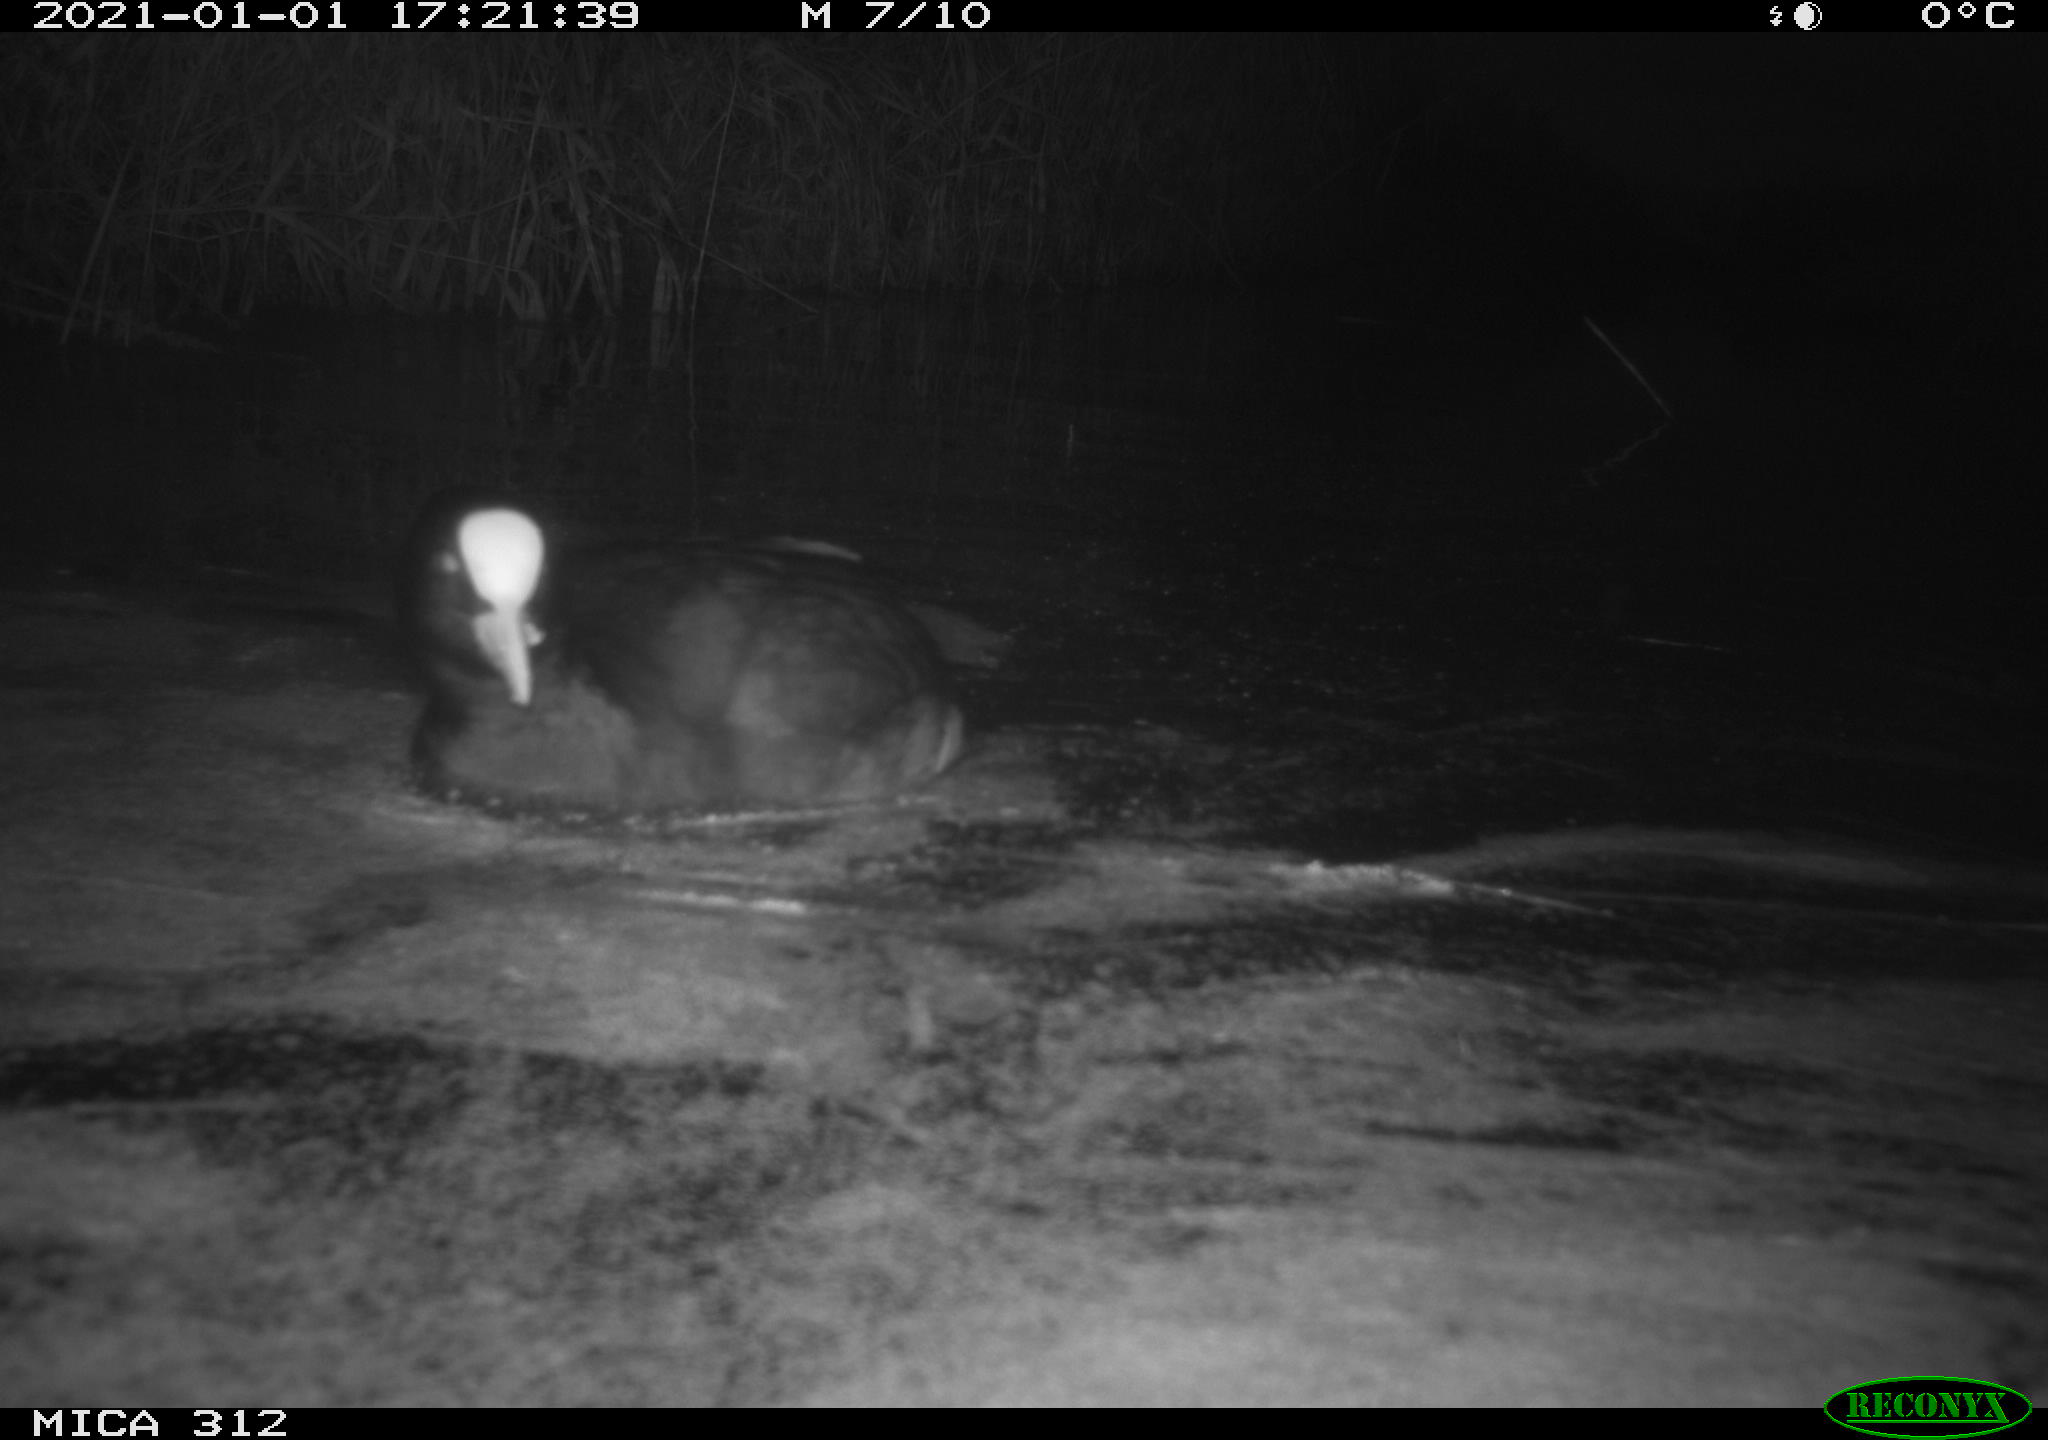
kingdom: Animalia
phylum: Chordata
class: Aves
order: Gruiformes
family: Rallidae
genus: Fulica
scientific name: Fulica atra
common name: Eurasian coot
